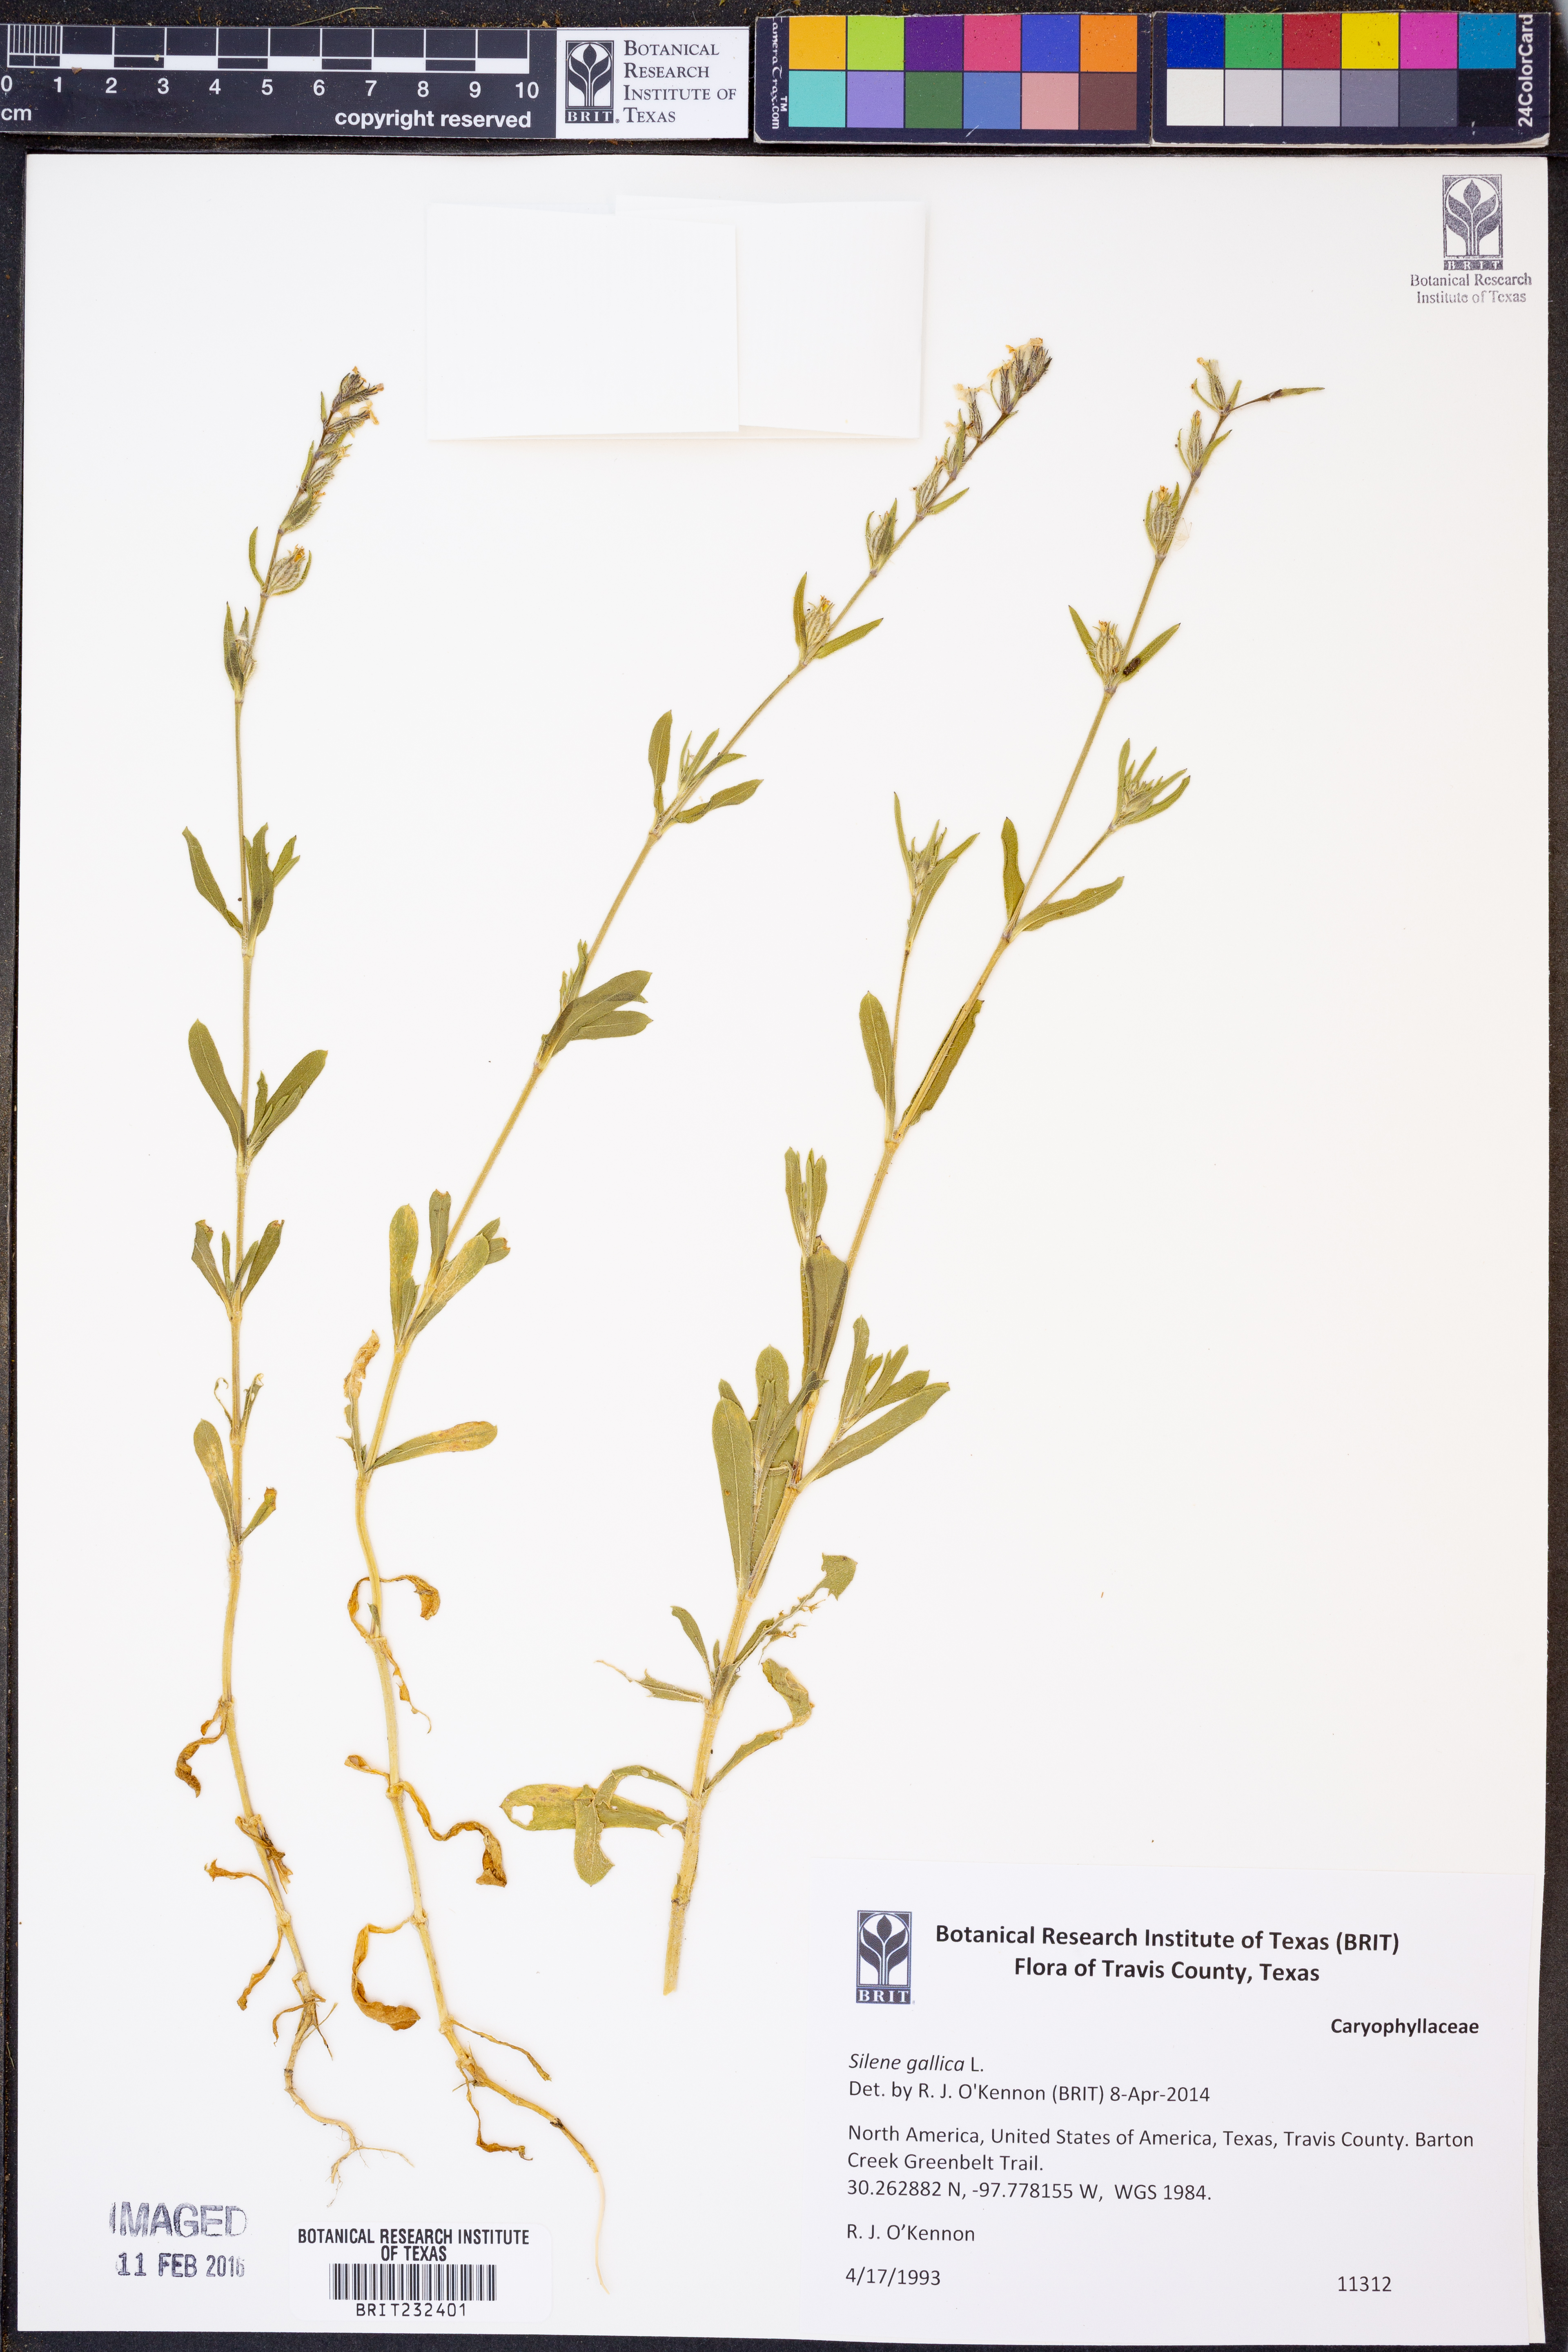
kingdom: Plantae
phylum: Tracheophyta
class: Magnoliopsida
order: Caryophyllales
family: Caryophyllaceae
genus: Silene
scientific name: Silene gallica
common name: Small-flowered catchfly
